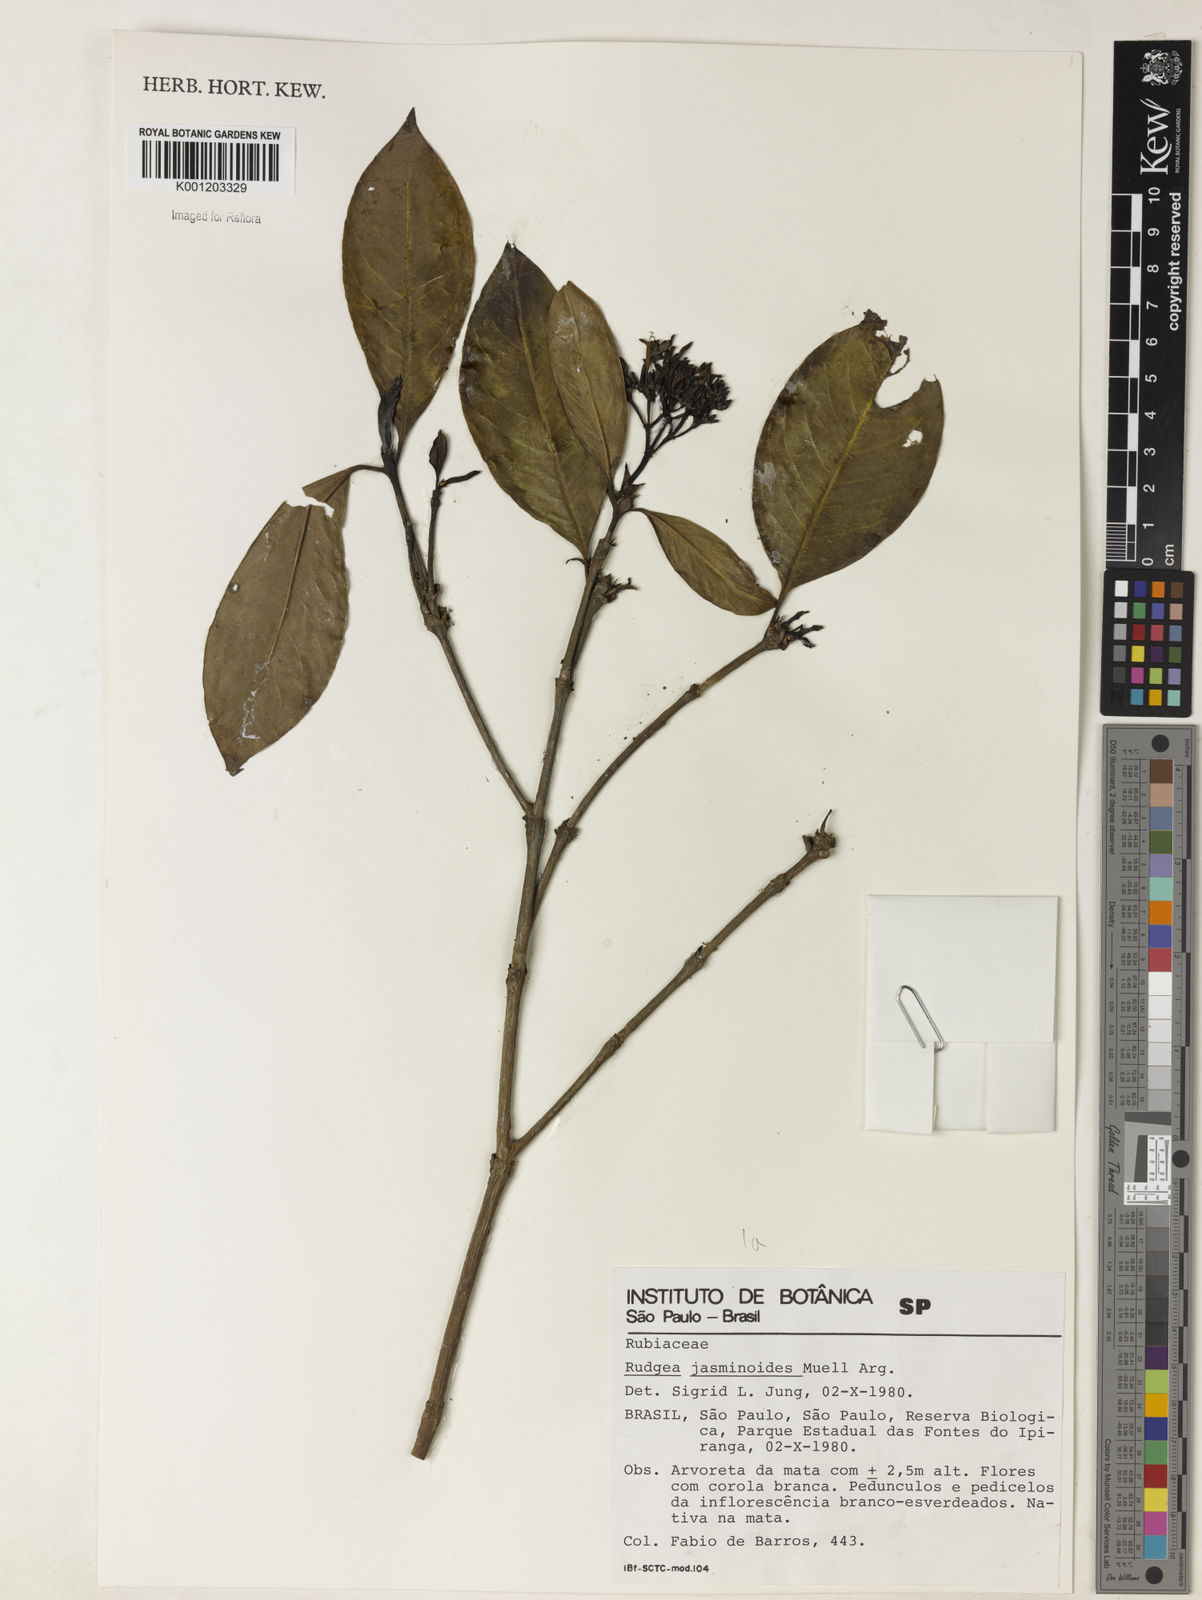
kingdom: Plantae
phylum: Tracheophyta
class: Magnoliopsida
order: Gentianales
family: Rubiaceae
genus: Rudgea
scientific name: Rudgea
